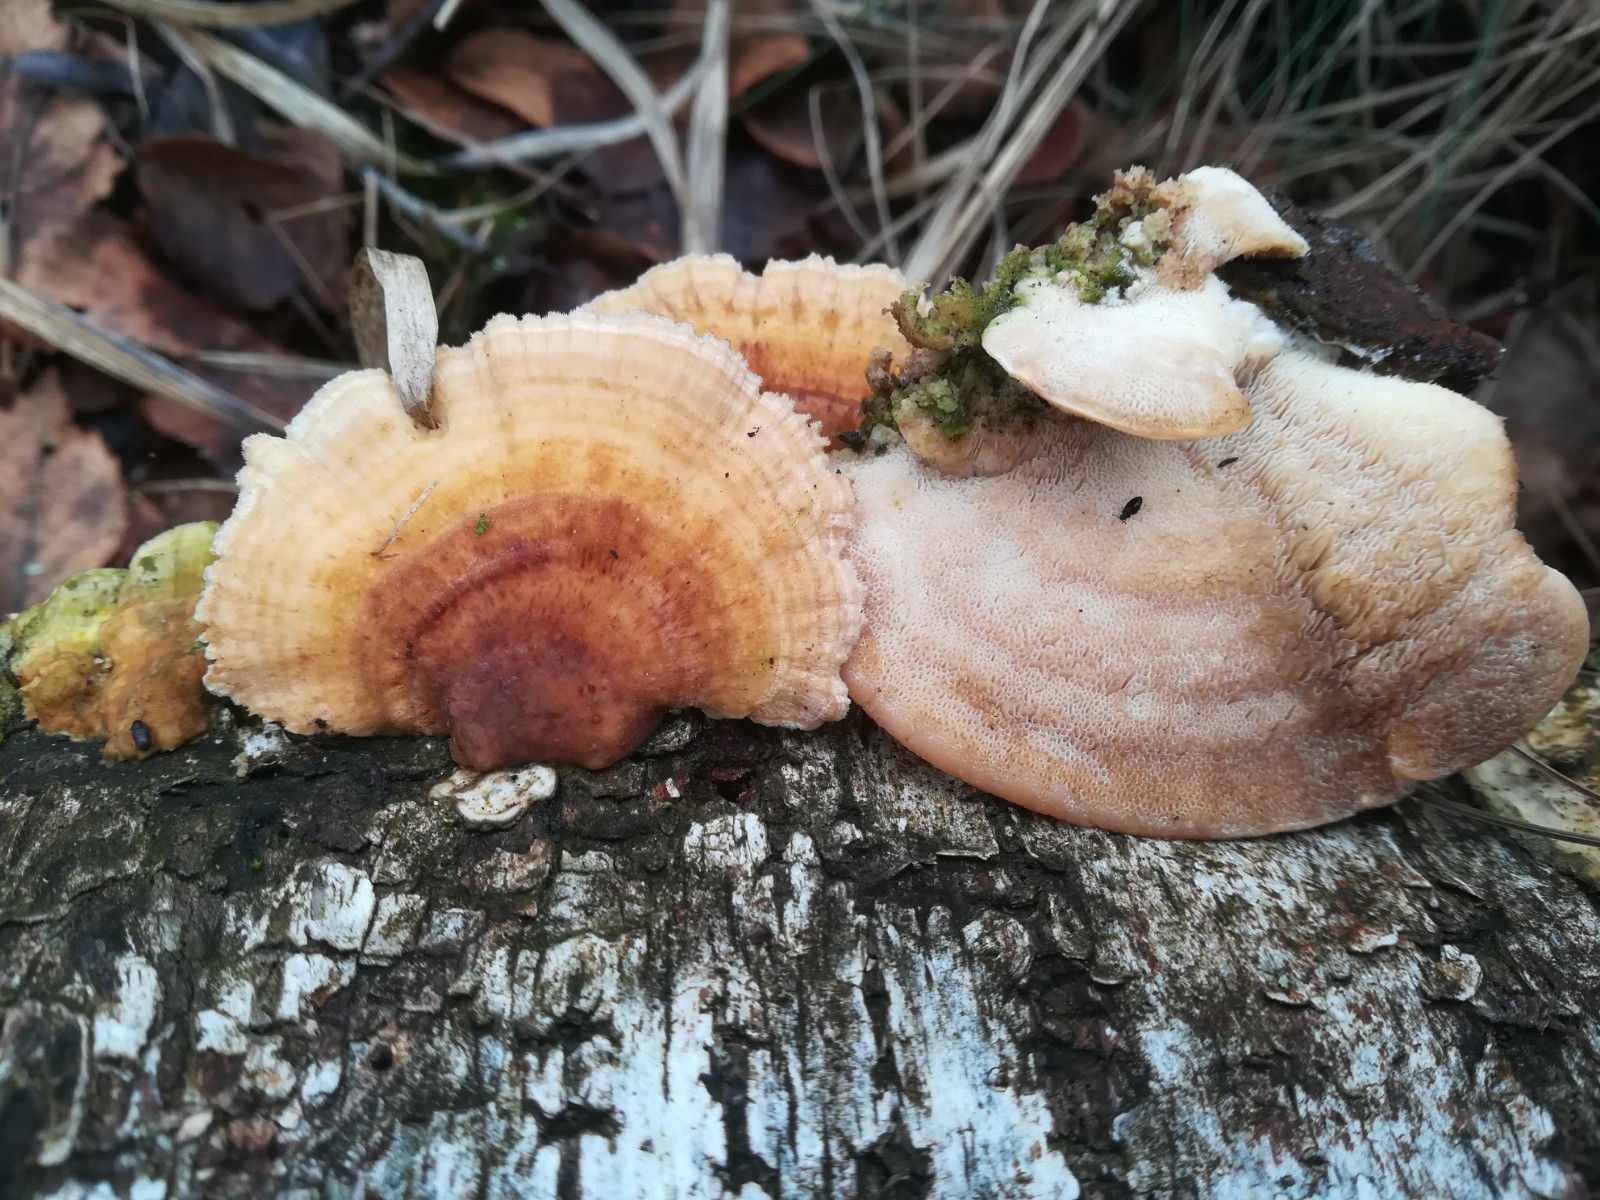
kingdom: Fungi
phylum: Basidiomycota
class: Agaricomycetes
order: Polyporales
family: Polyporaceae
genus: Trametes
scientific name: Trametes ochracea
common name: bæltet læderporesvamp
